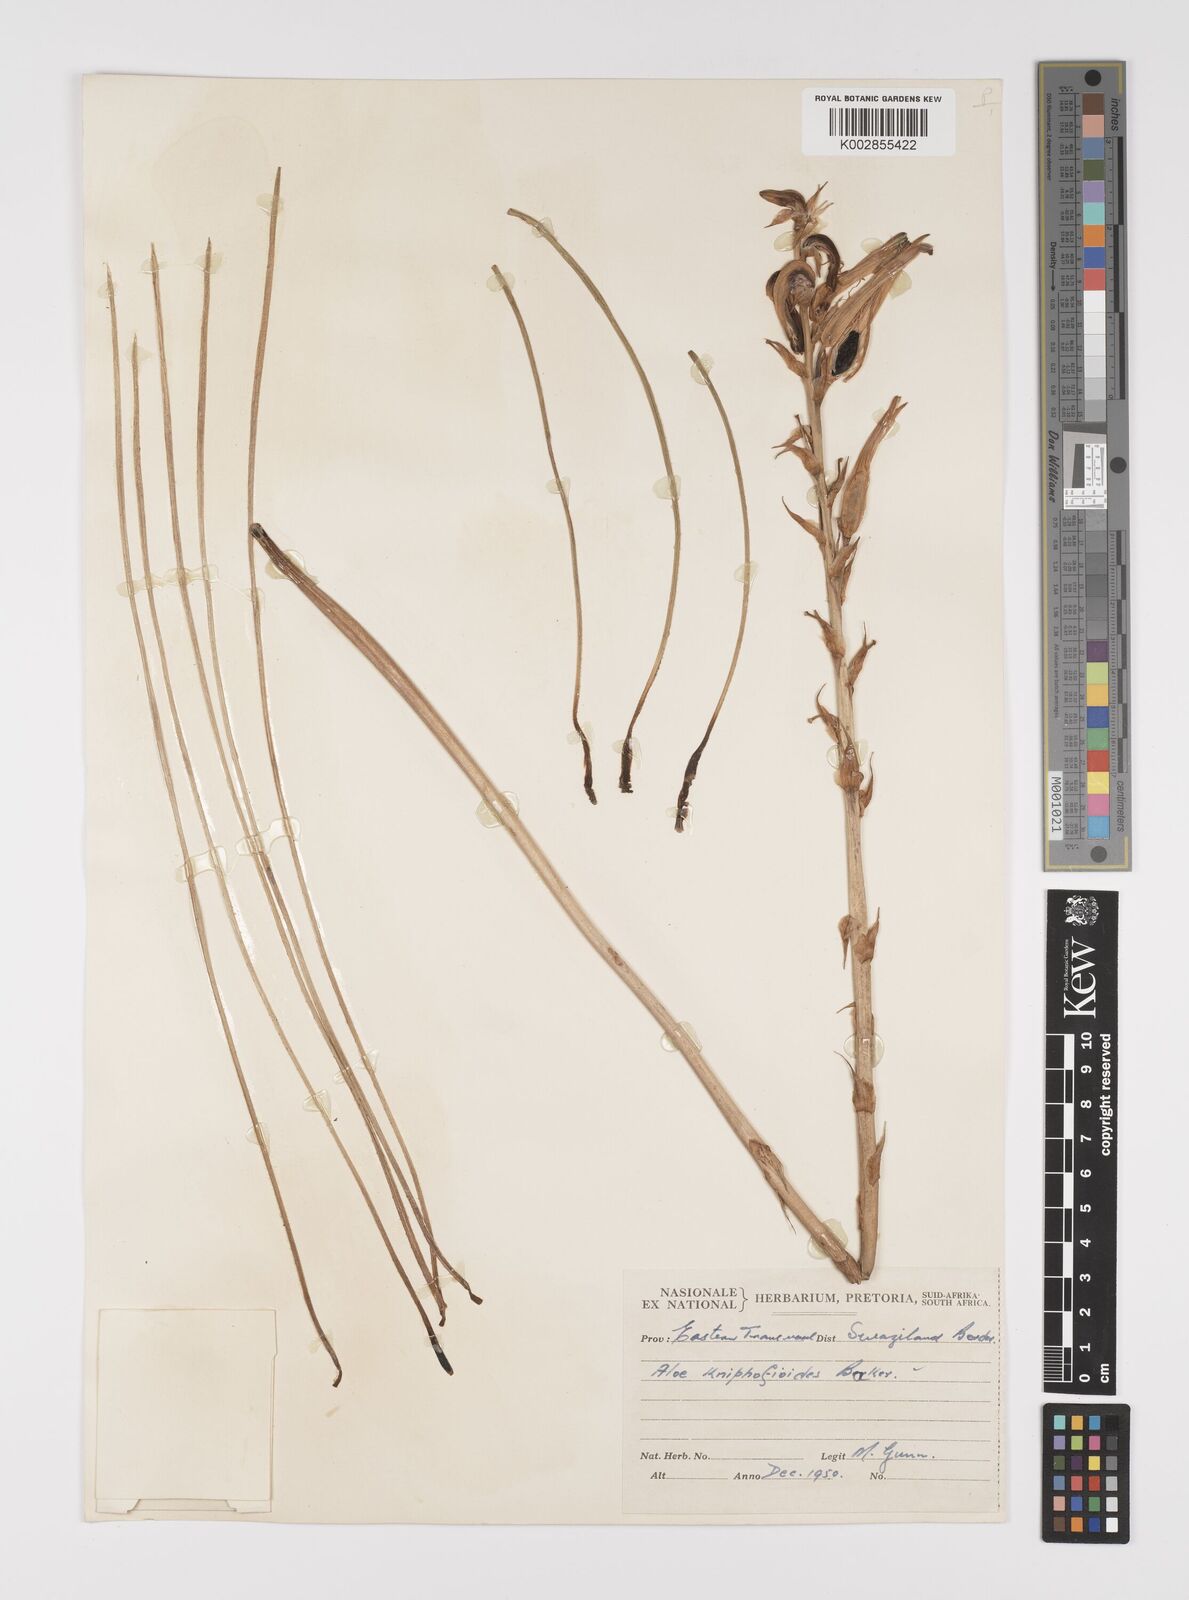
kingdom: Plantae
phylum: Tracheophyta
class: Liliopsida
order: Asparagales
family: Asphodelaceae
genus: Aloe
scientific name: Aloe kniphofioides
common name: Grass aloe
